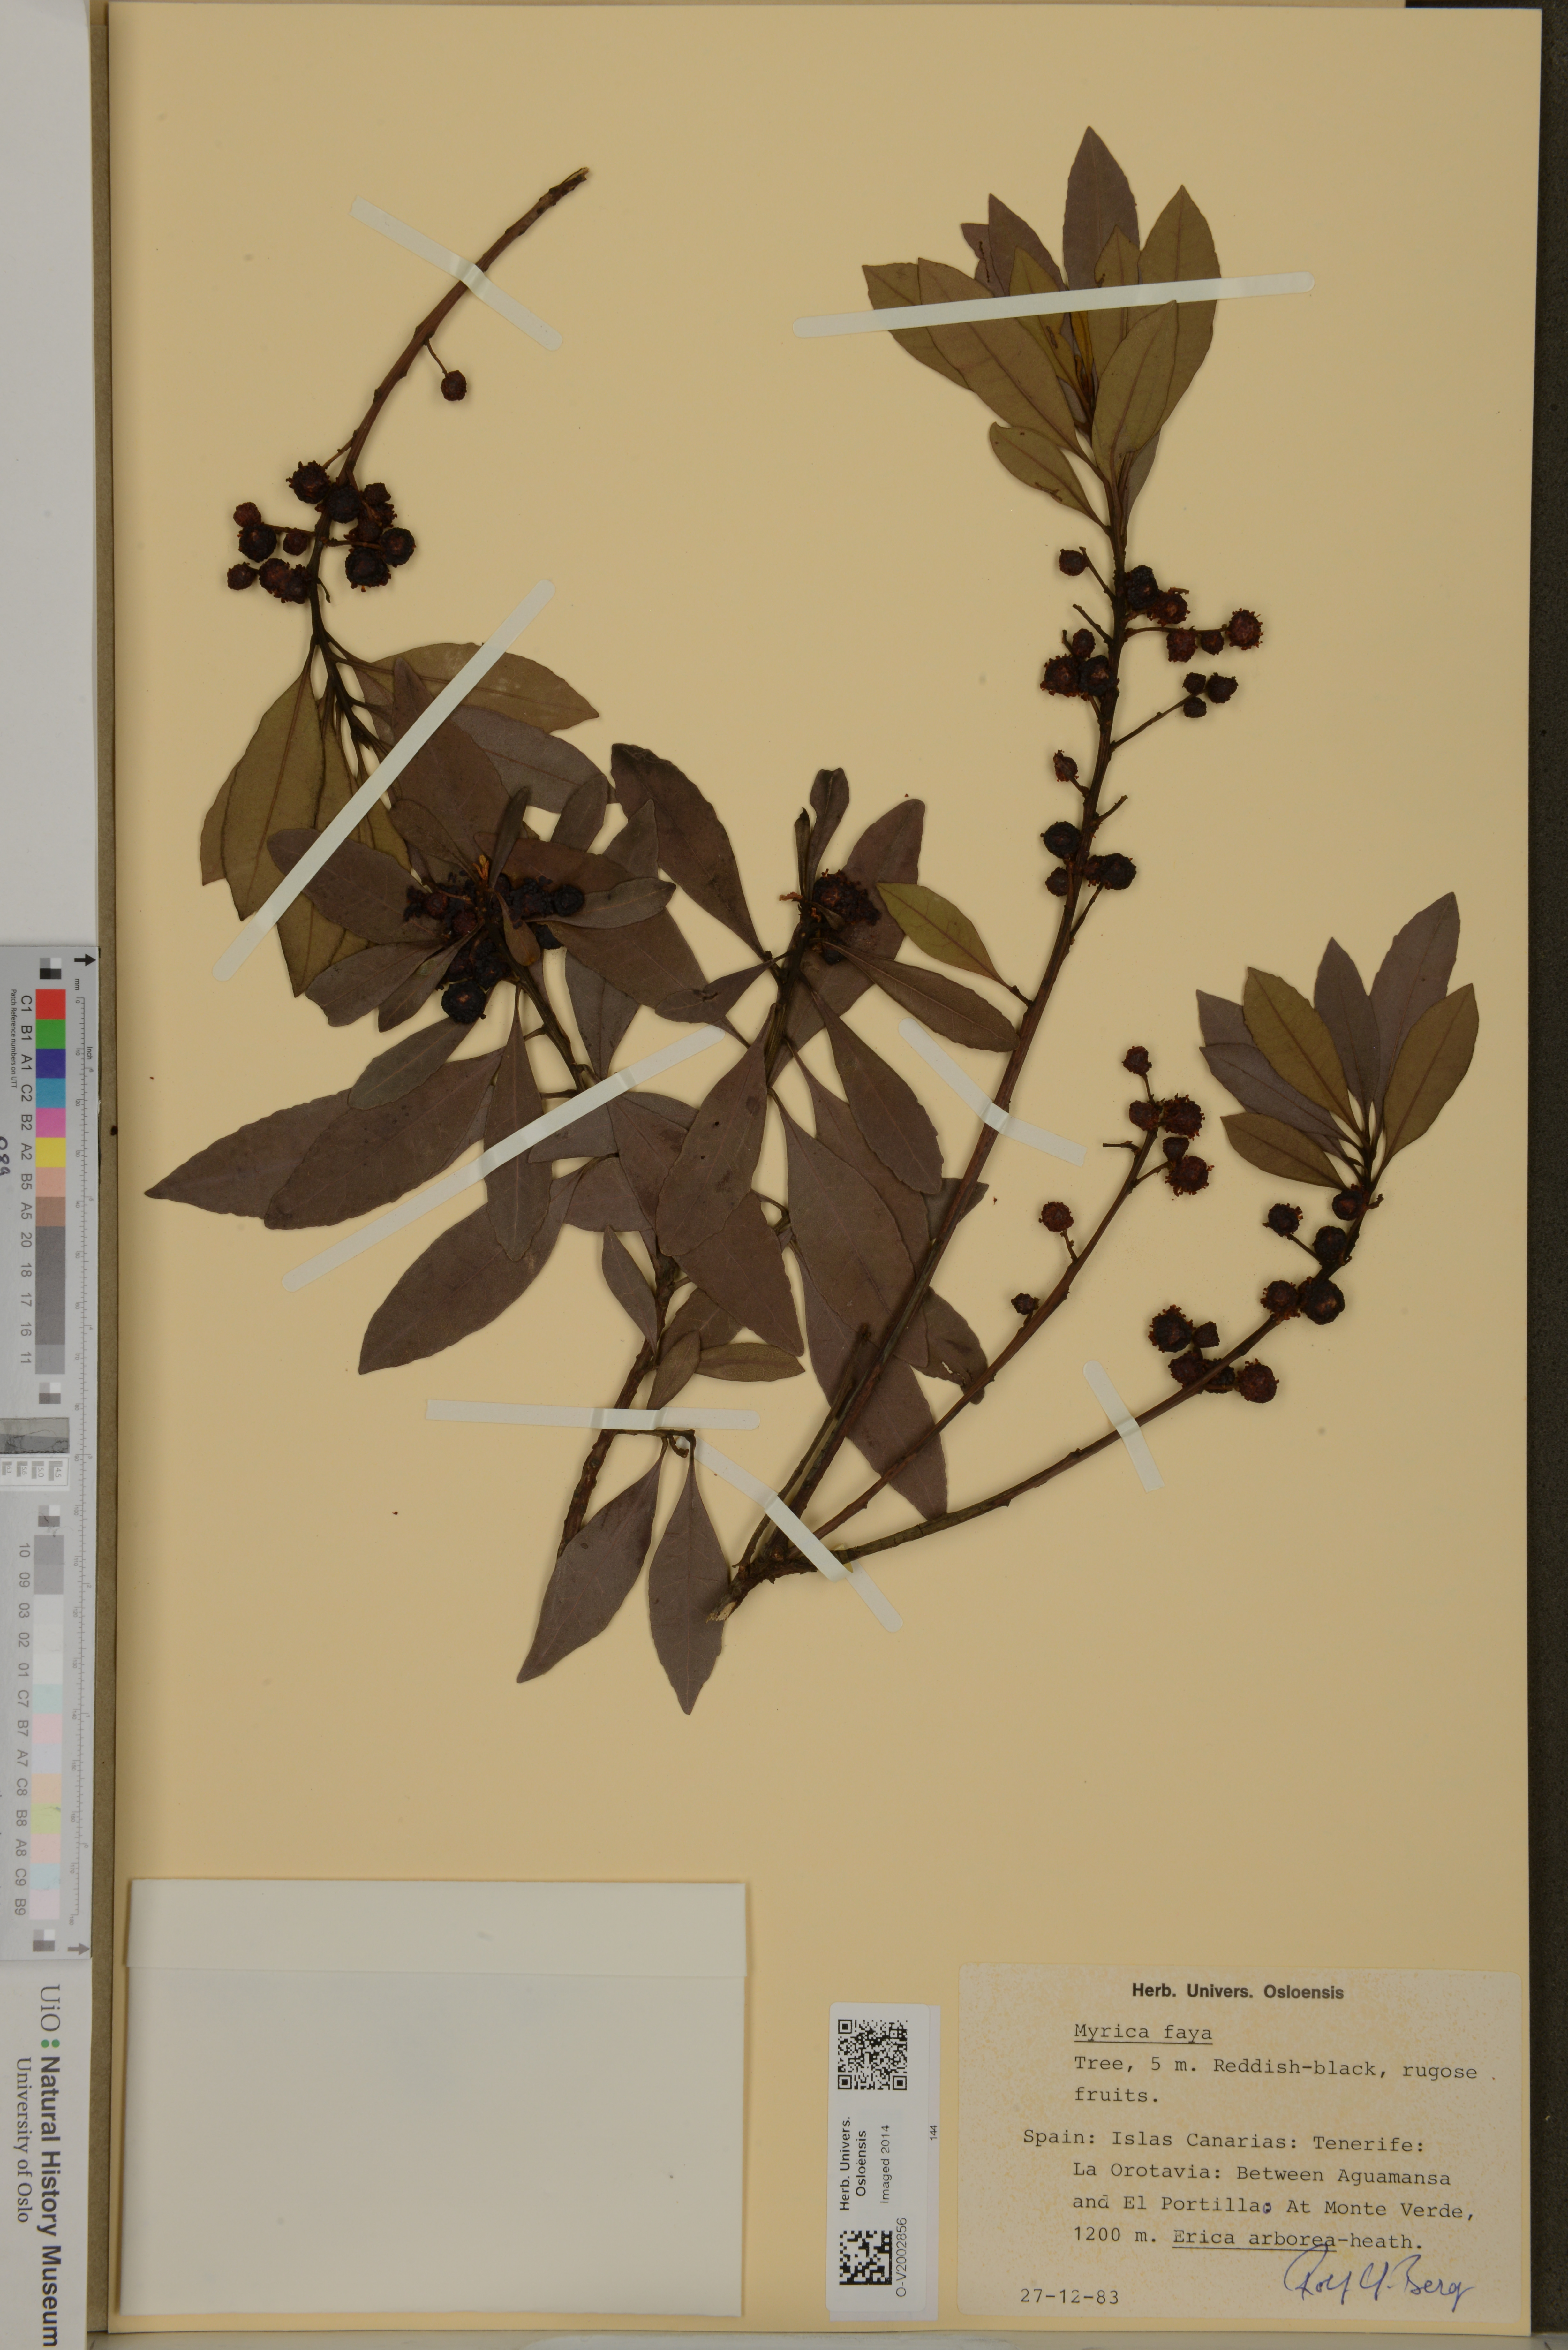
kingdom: Plantae
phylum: Tracheophyta
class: Magnoliopsida
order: Fagales
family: Myricaceae
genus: Morella
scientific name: Morella faya
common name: Firetree
